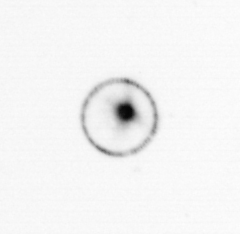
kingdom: Chromista
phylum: Myzozoa
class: Dinophyceae
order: Noctilucales
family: Noctilucaceae
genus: Noctiluca
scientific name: Noctiluca scintillans
